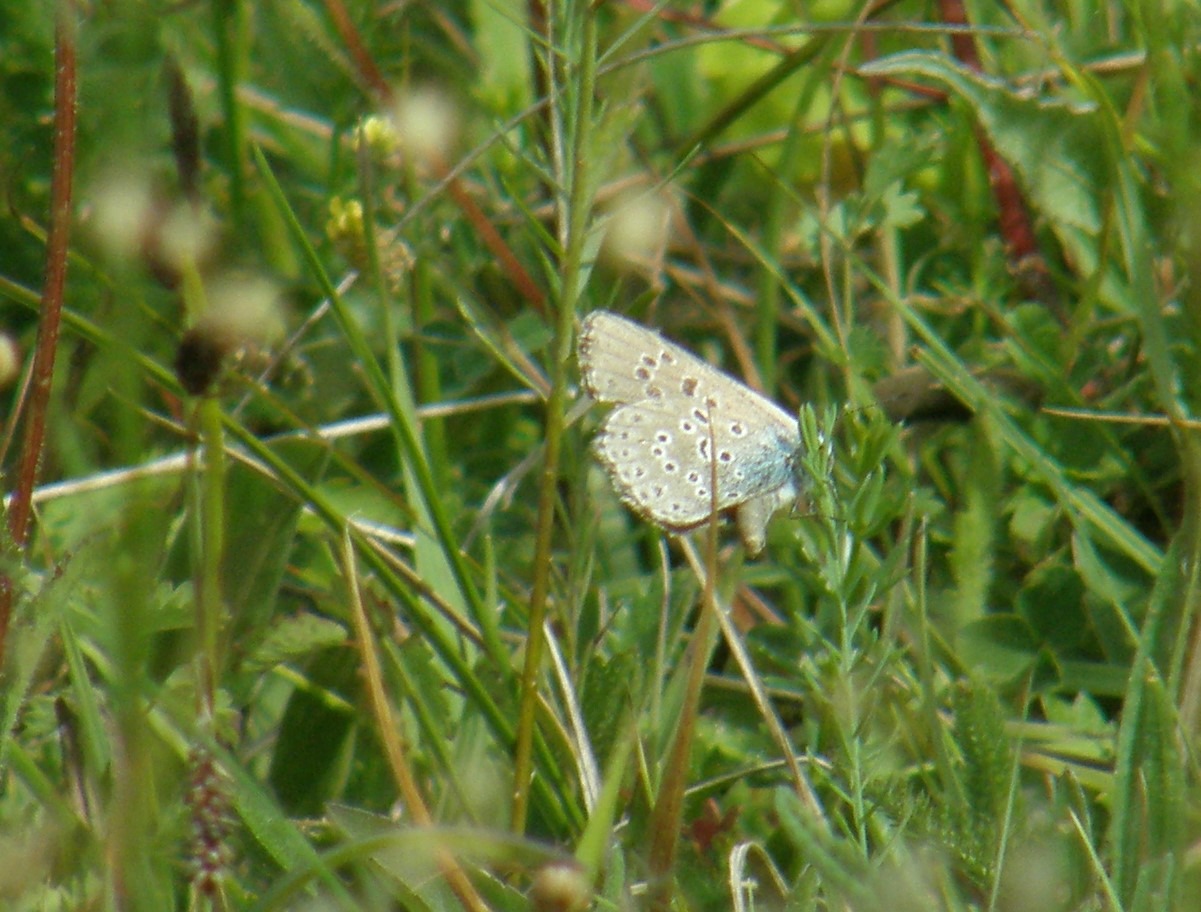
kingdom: Animalia
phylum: Arthropoda
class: Insecta
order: Lepidoptera
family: Lycaenidae
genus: Maculinea
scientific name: Maculinea arion
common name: Sortplettet blåfugl
